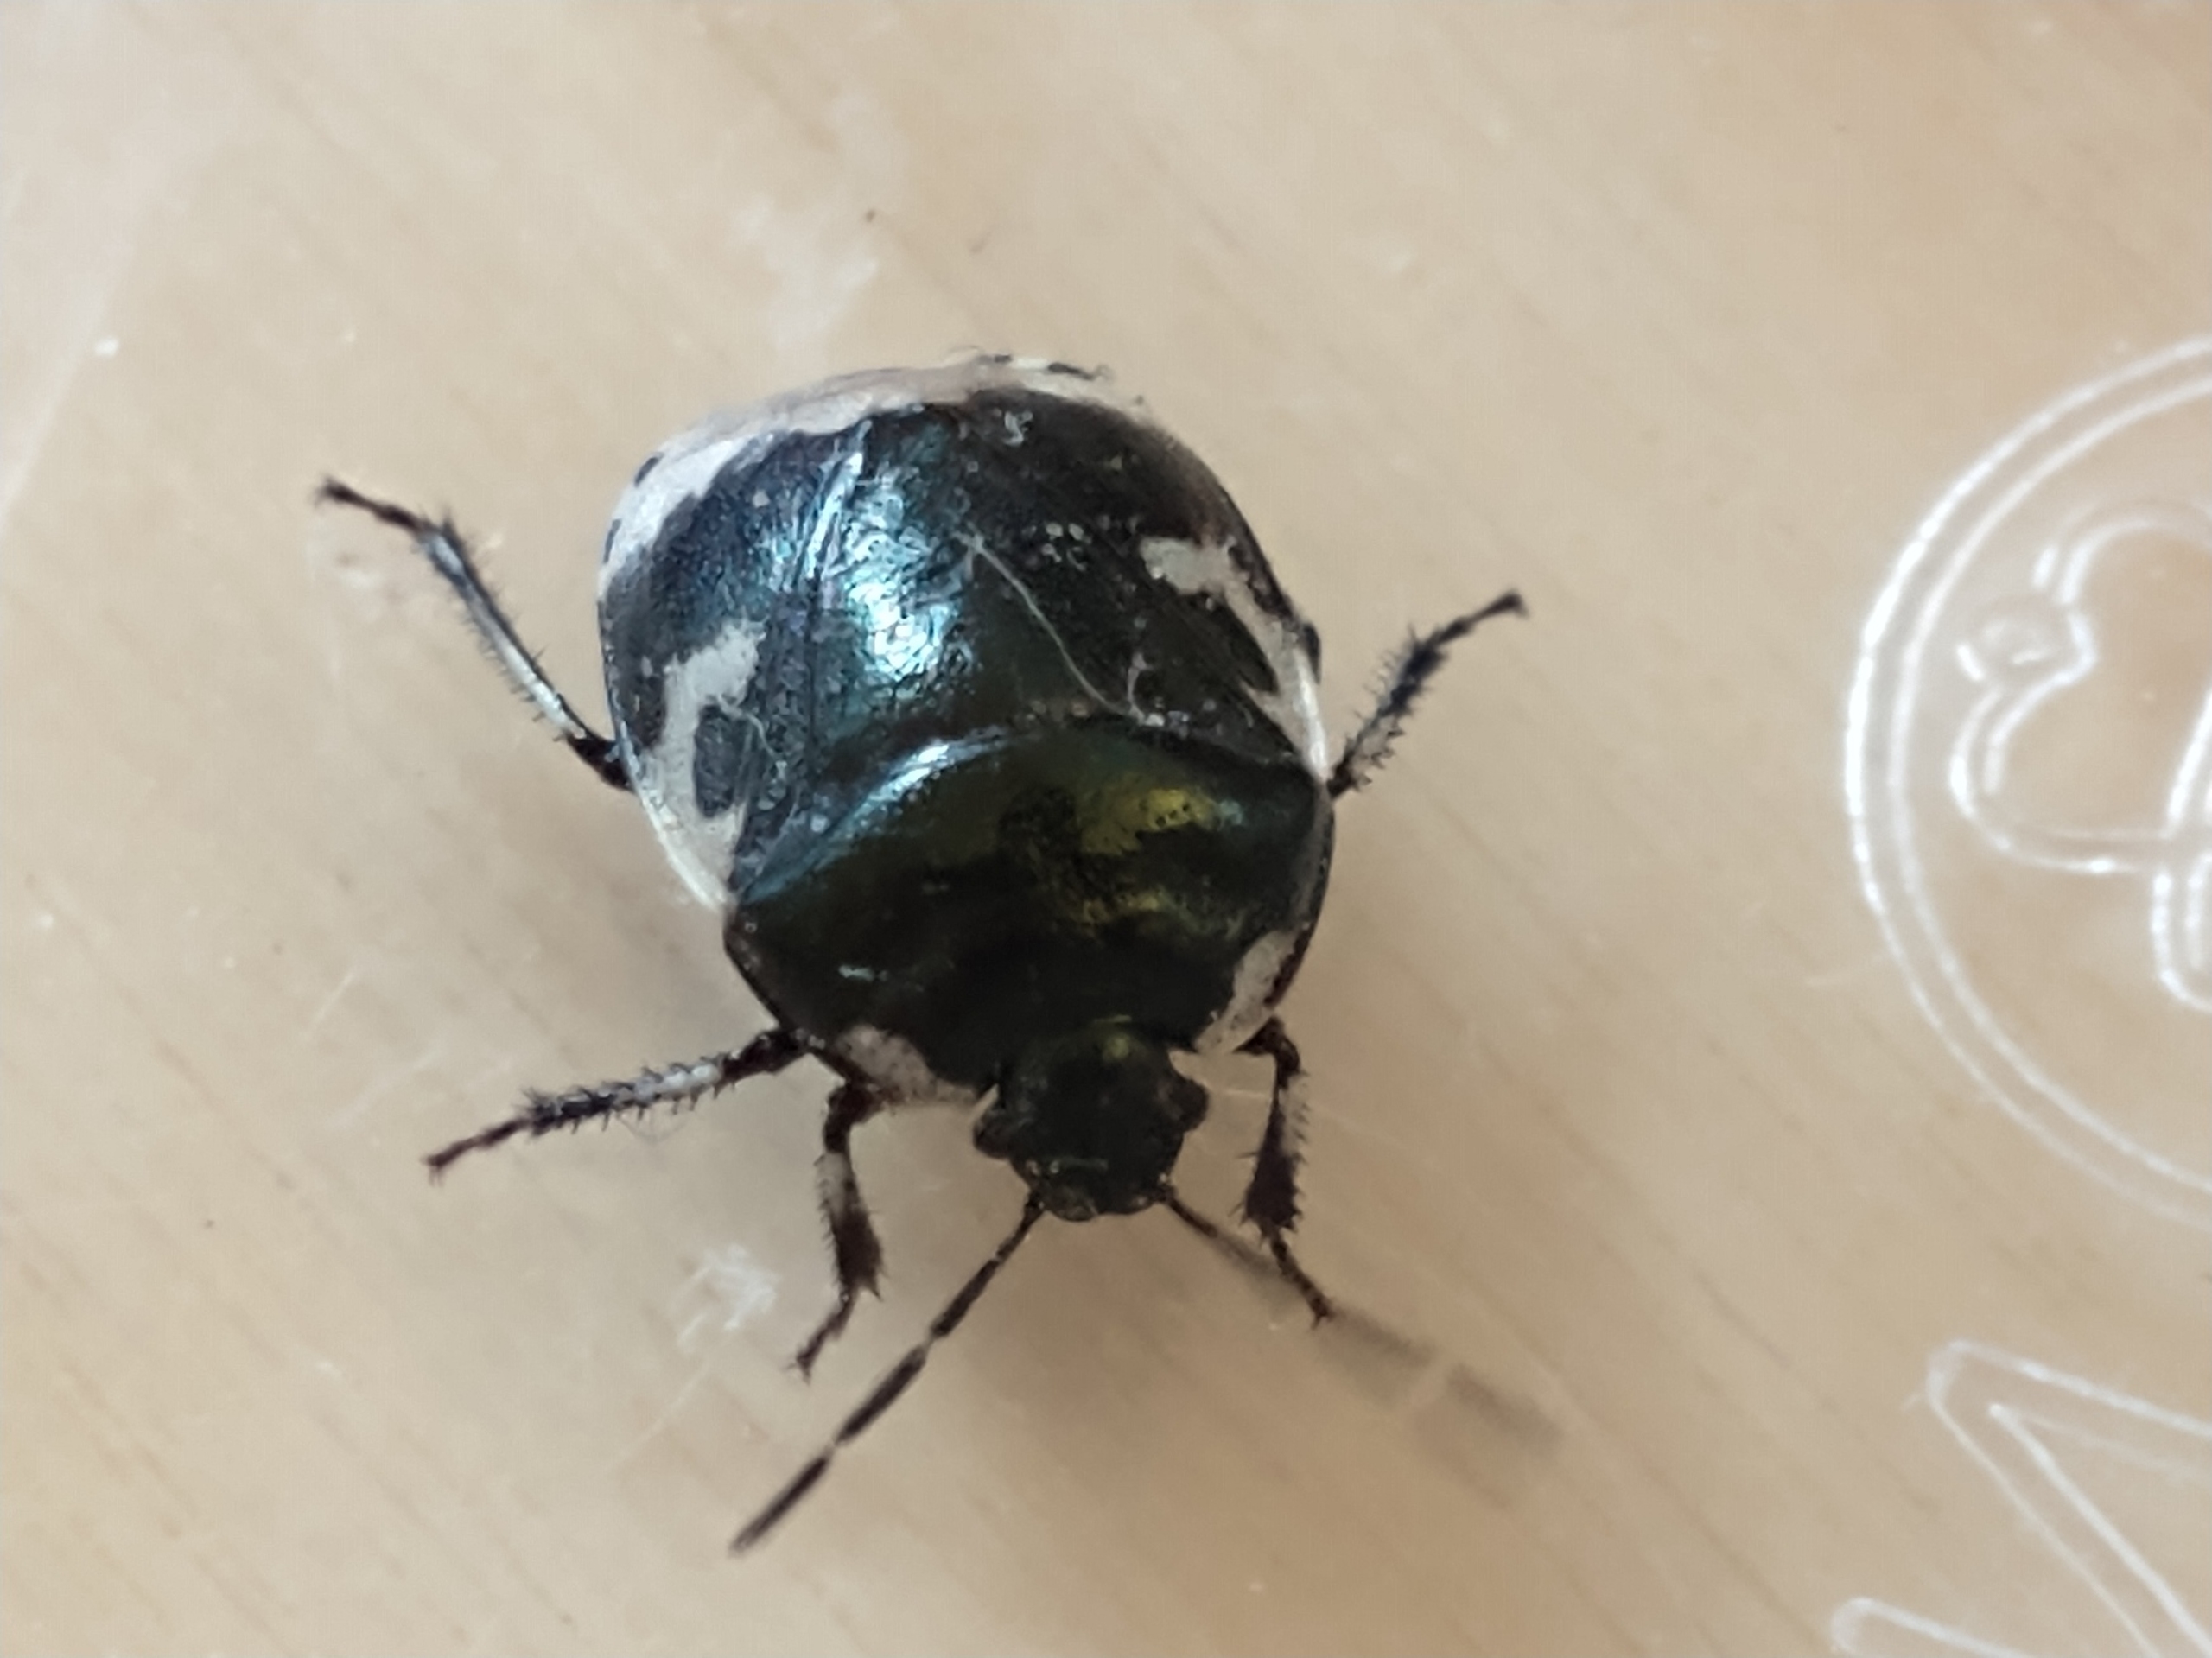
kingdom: Animalia
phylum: Arthropoda
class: Insecta
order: Hemiptera
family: Cydnidae
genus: Tritomegas
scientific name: Tritomegas bicolor
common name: Spættet tornben
